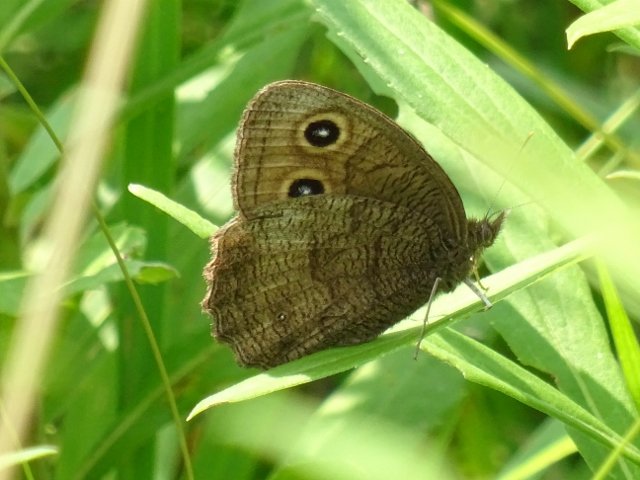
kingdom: Animalia
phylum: Arthropoda
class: Insecta
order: Lepidoptera
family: Nymphalidae
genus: Cercyonis
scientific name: Cercyonis pegala
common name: Common Wood-Nymph
